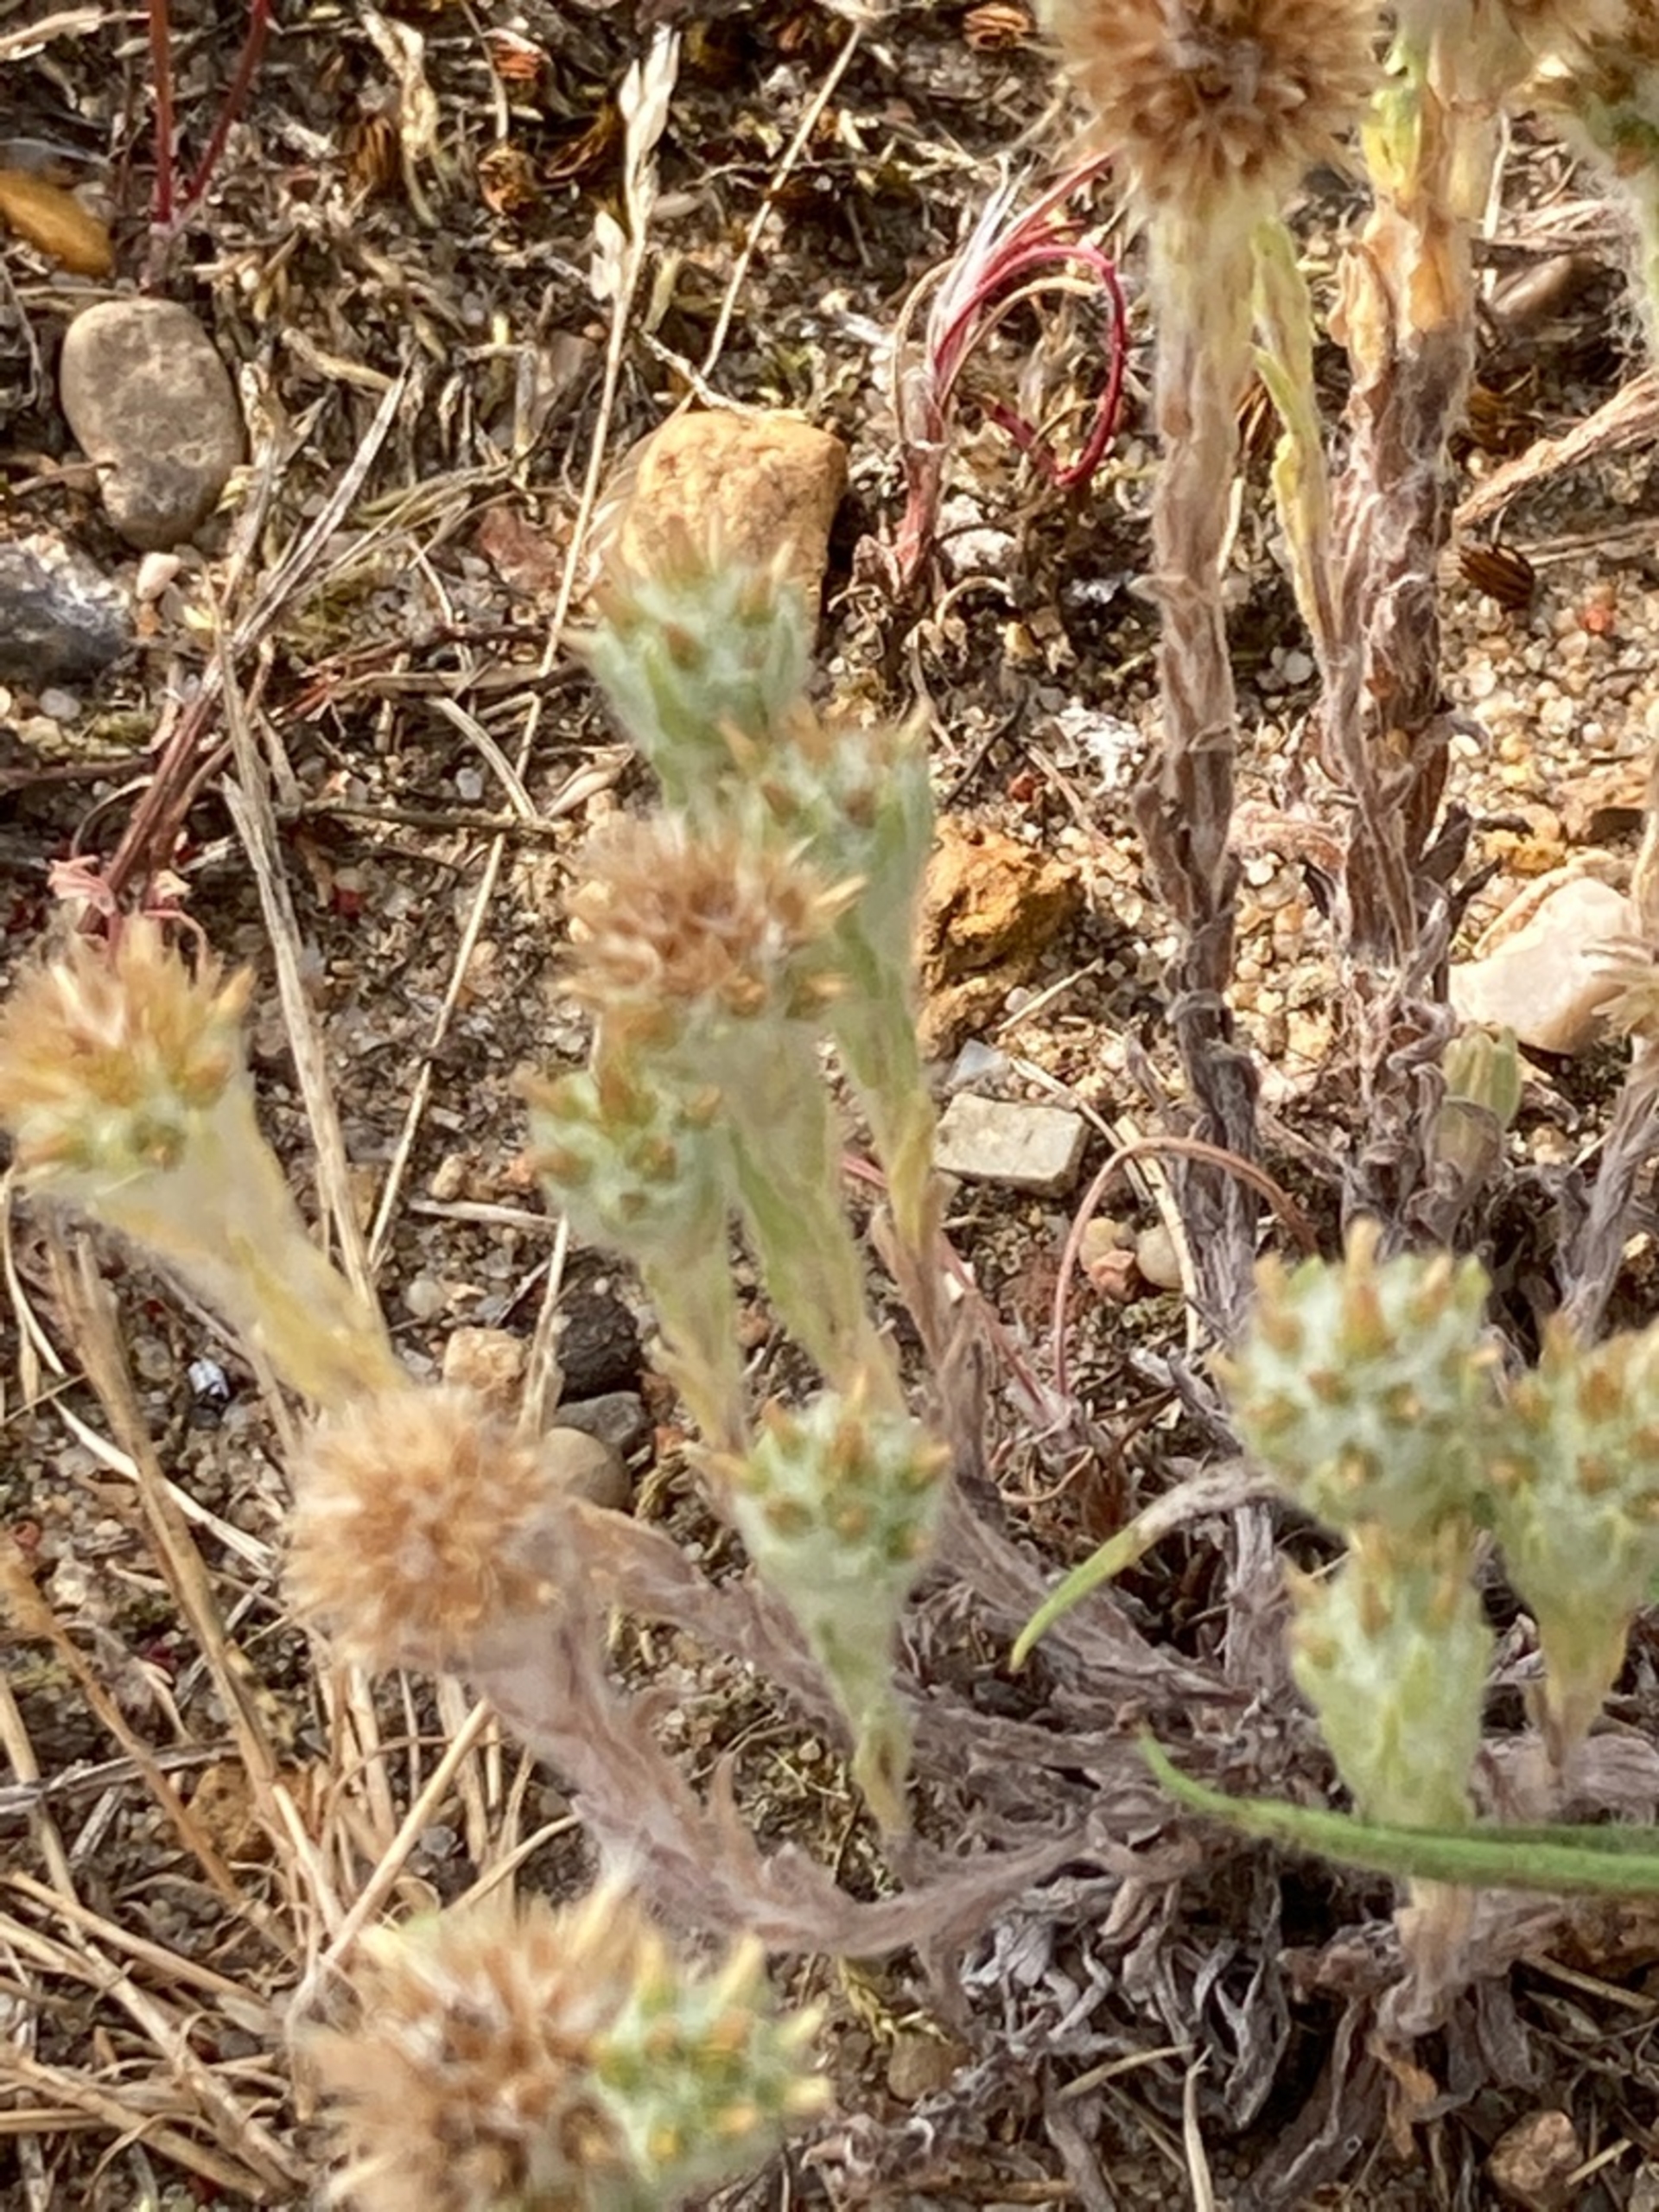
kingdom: Plantae
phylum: Tracheophyta
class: Magnoliopsida
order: Asterales
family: Asteraceae
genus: Filago
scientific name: Filago germanica
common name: Kugle-museurt
